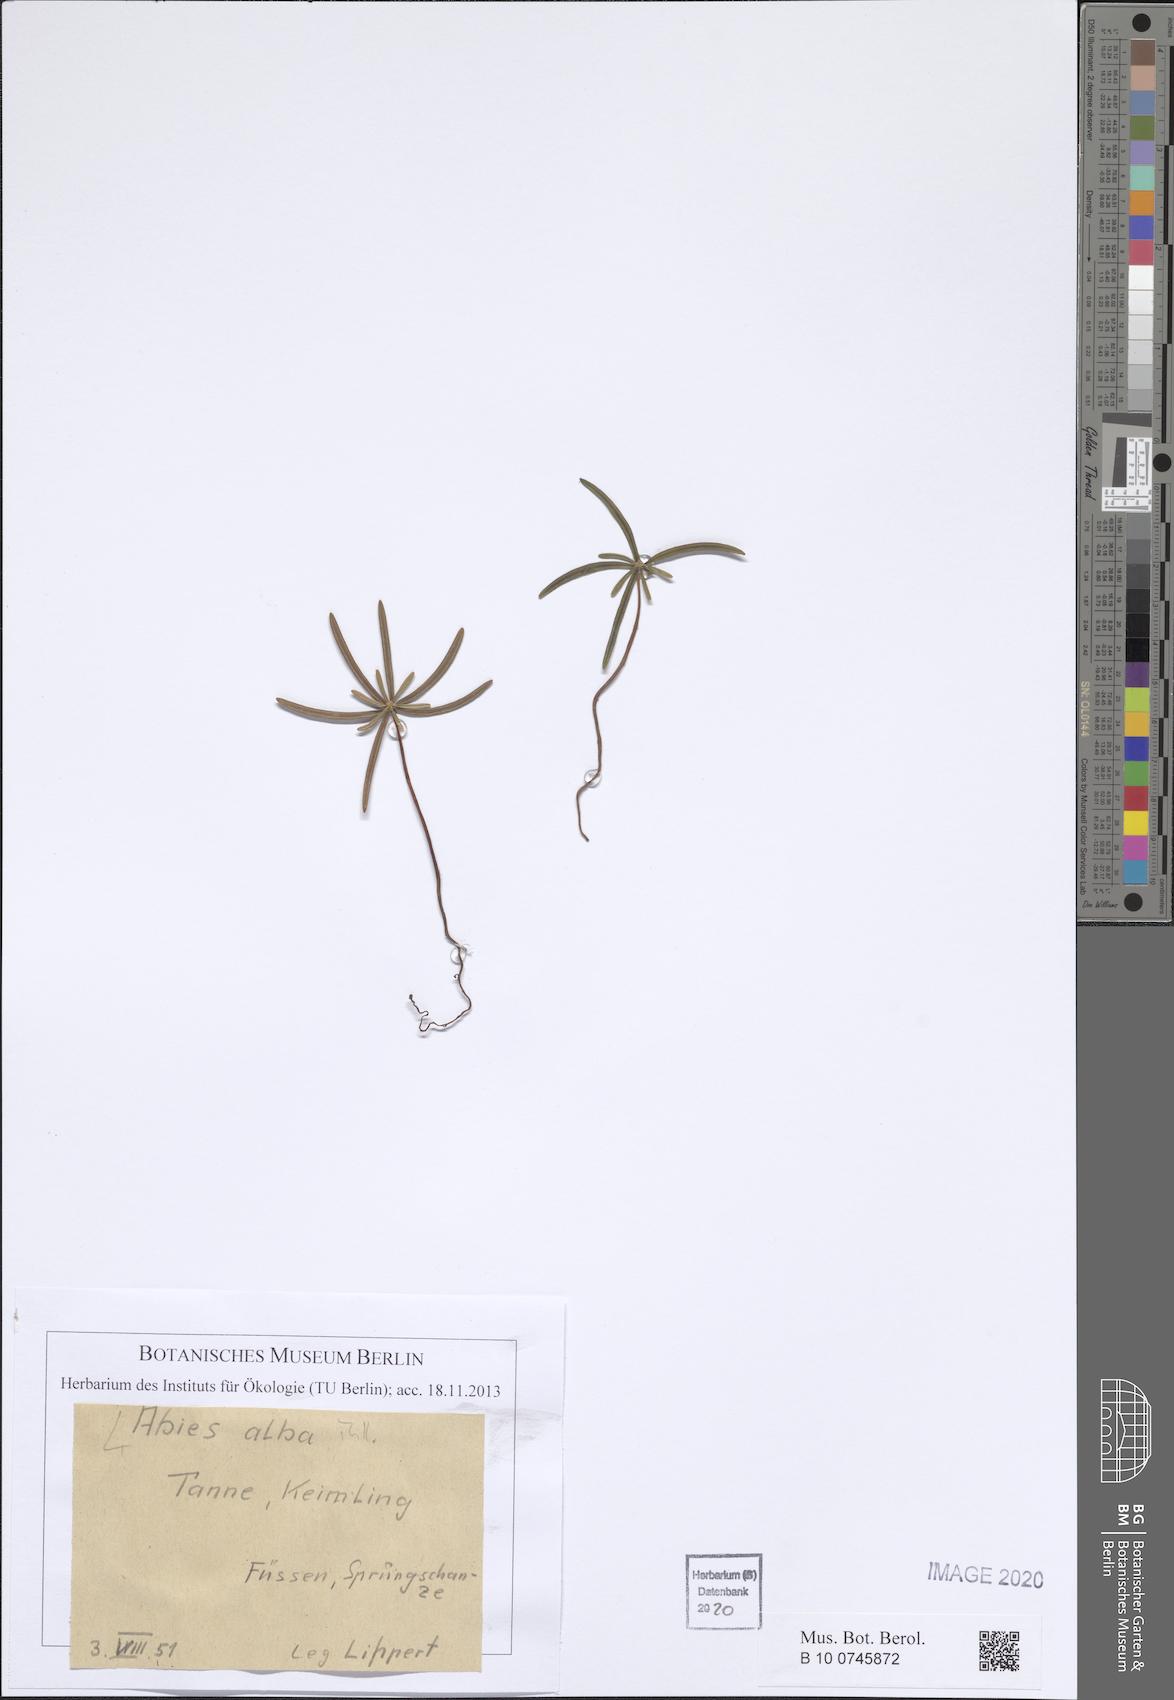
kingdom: Plantae
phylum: Tracheophyta
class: Pinopsida
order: Pinales
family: Pinaceae
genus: Abies
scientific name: Abies alba
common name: Silver fir
